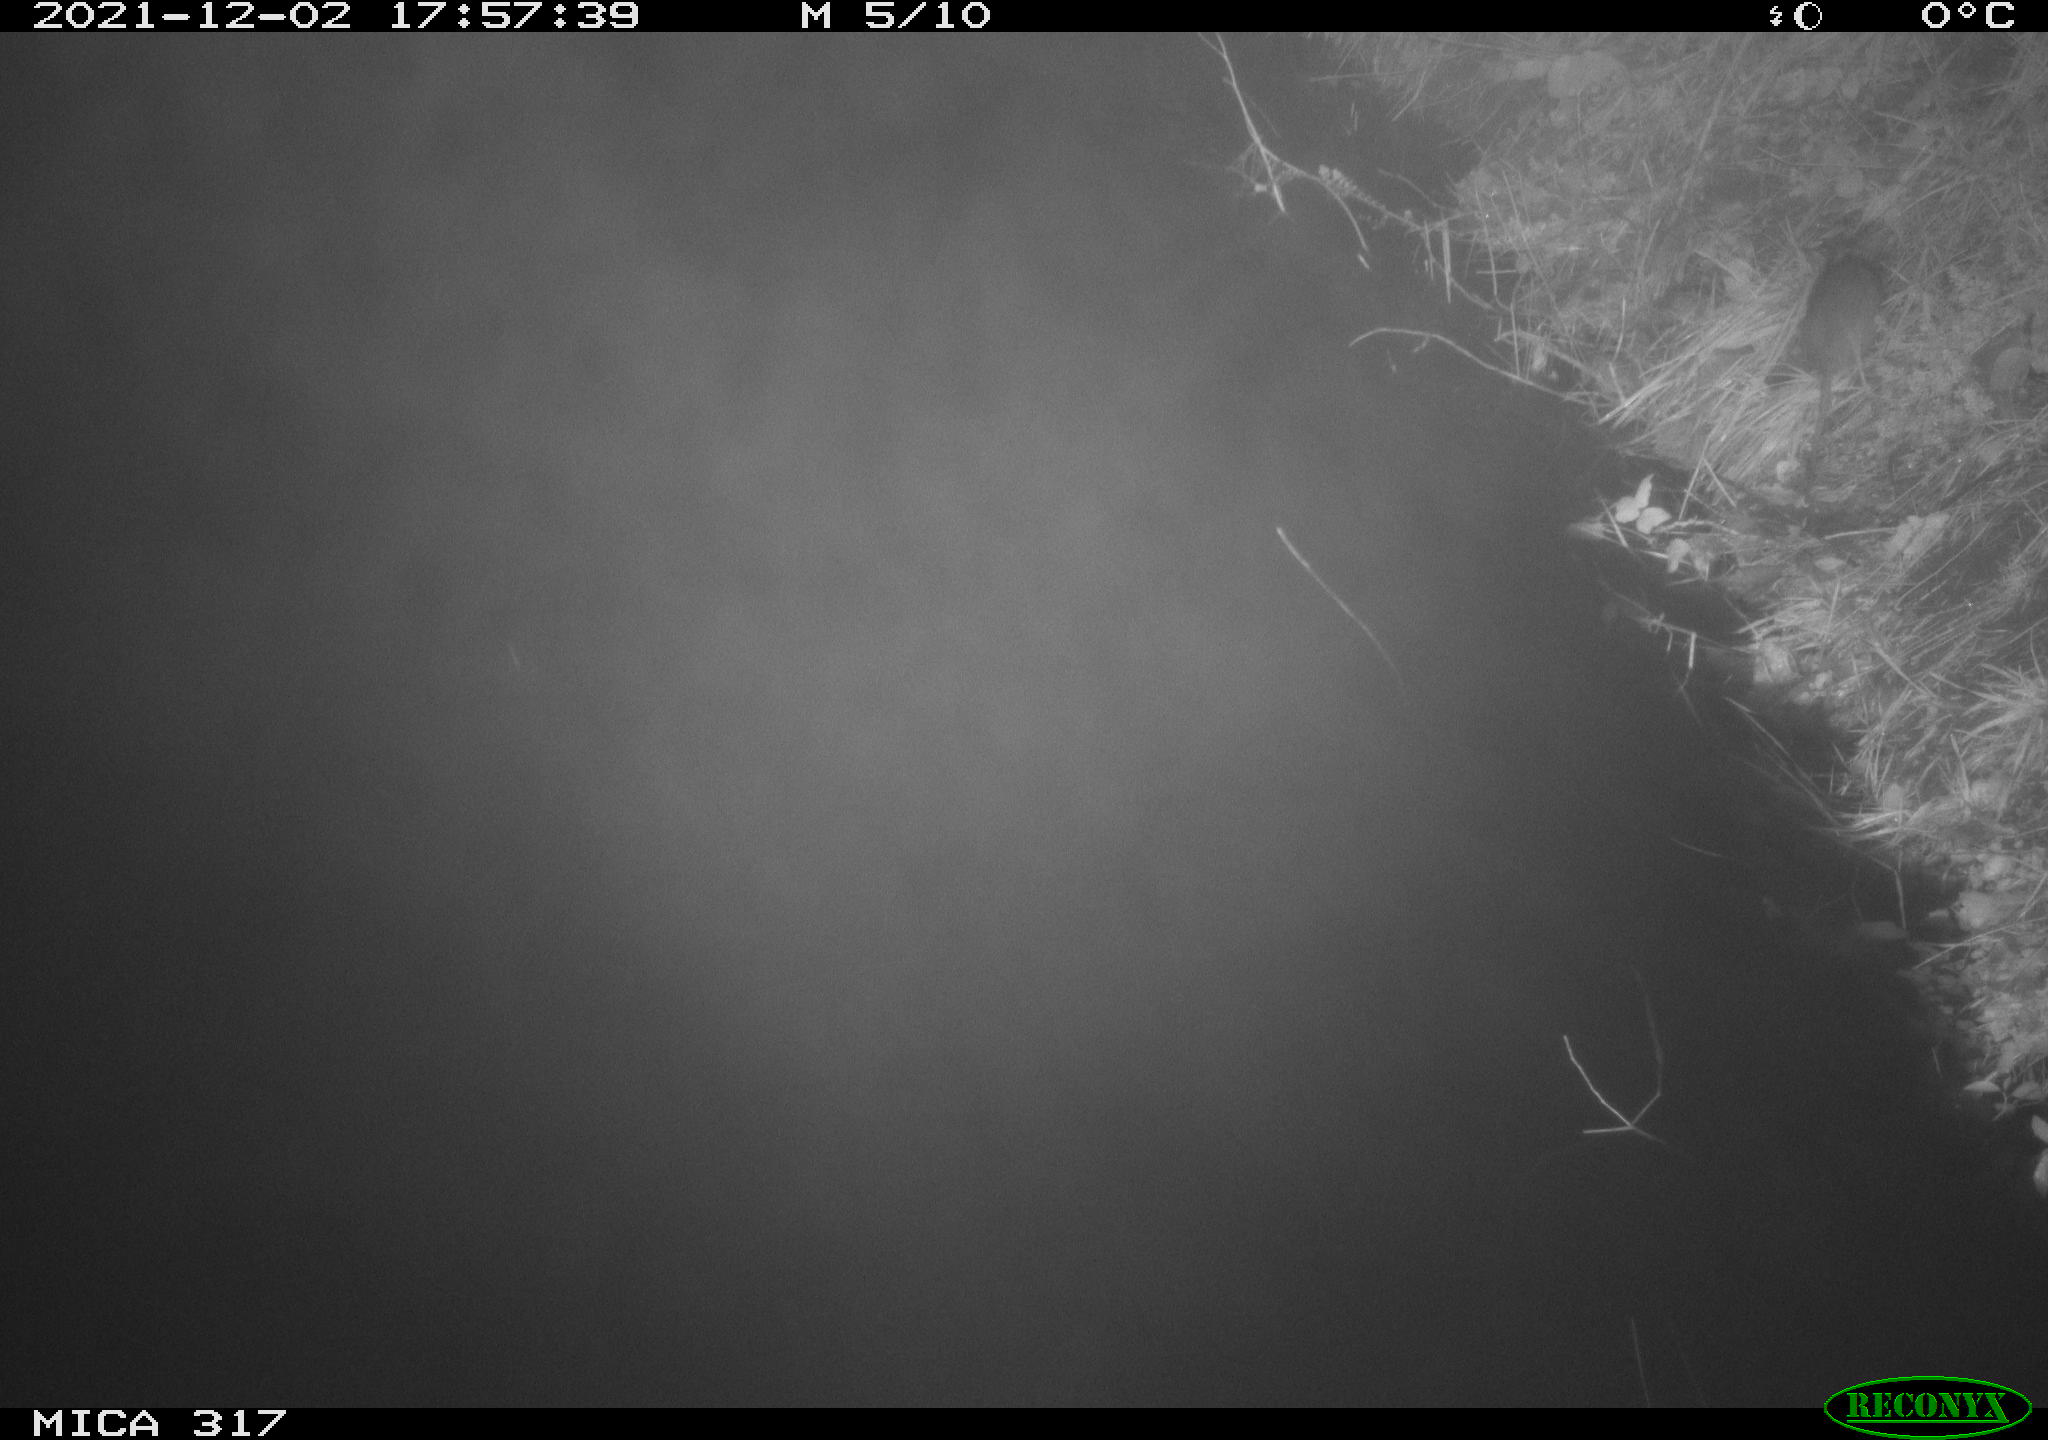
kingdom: Animalia
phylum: Chordata
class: Mammalia
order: Rodentia
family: Muridae
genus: Rattus
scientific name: Rattus norvegicus
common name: Brown rat
